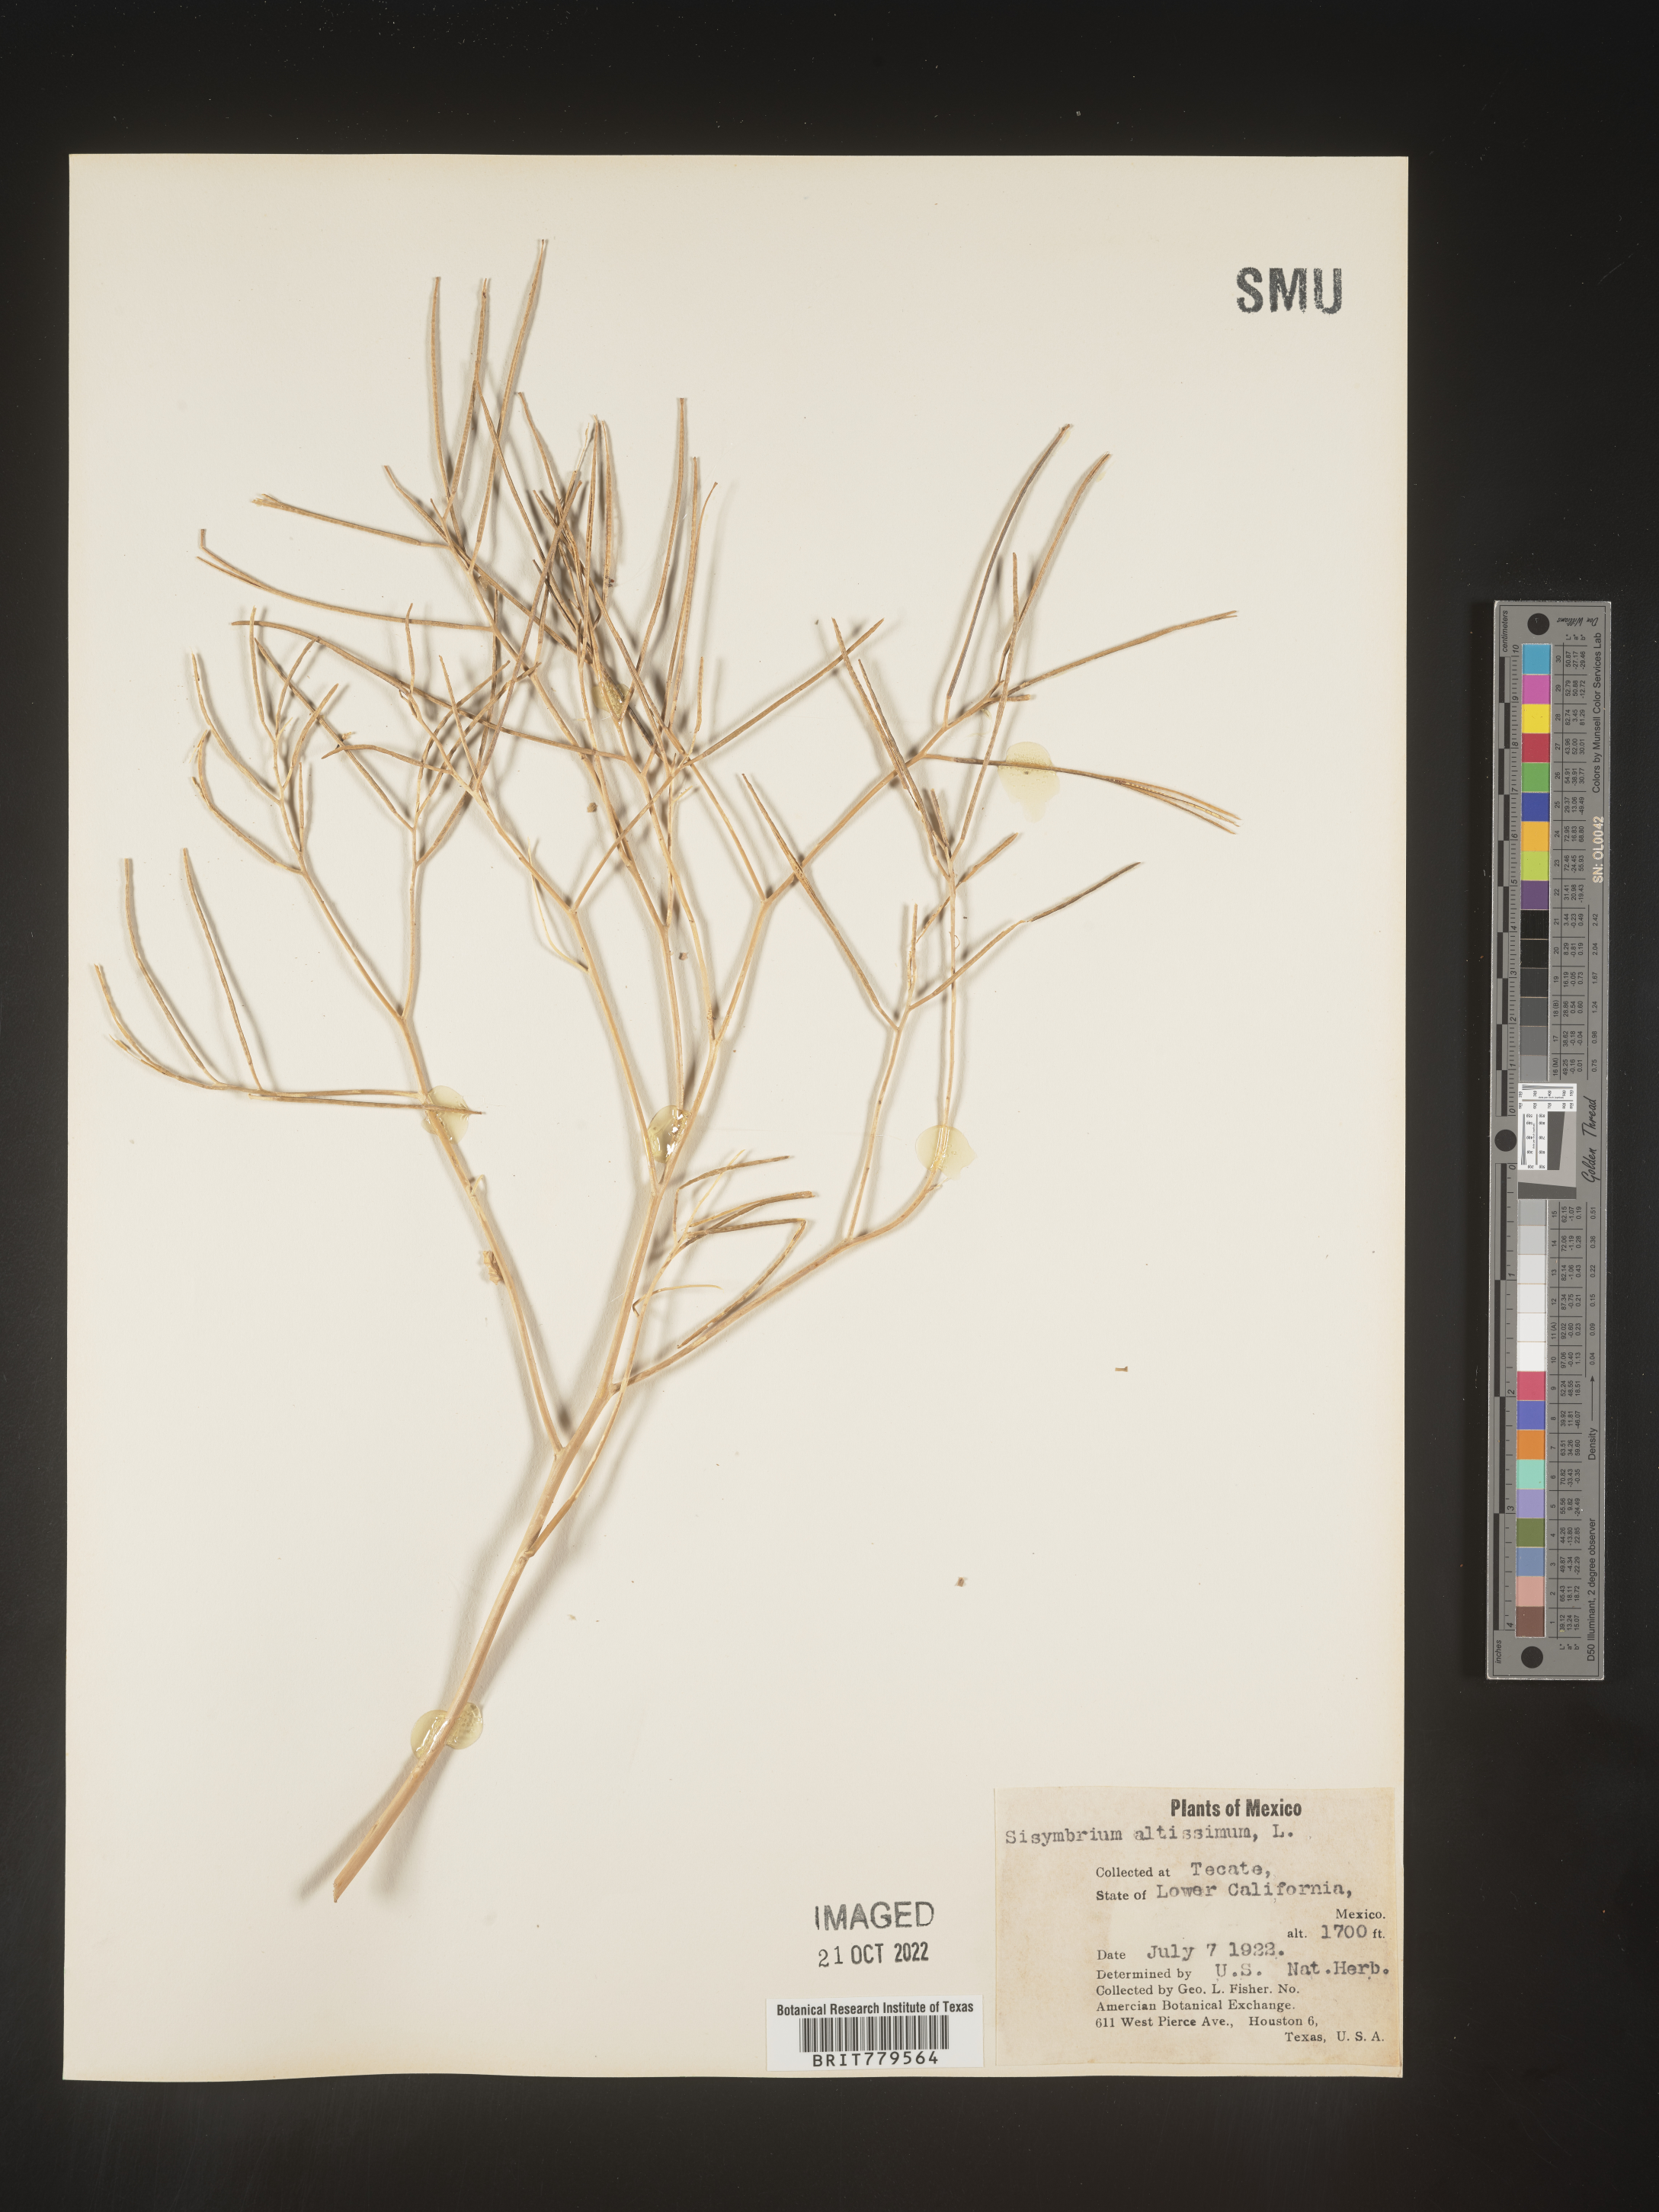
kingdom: Plantae
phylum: Tracheophyta
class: Magnoliopsida
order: Brassicales
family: Brassicaceae
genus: Sisymbrium
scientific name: Sisymbrium
